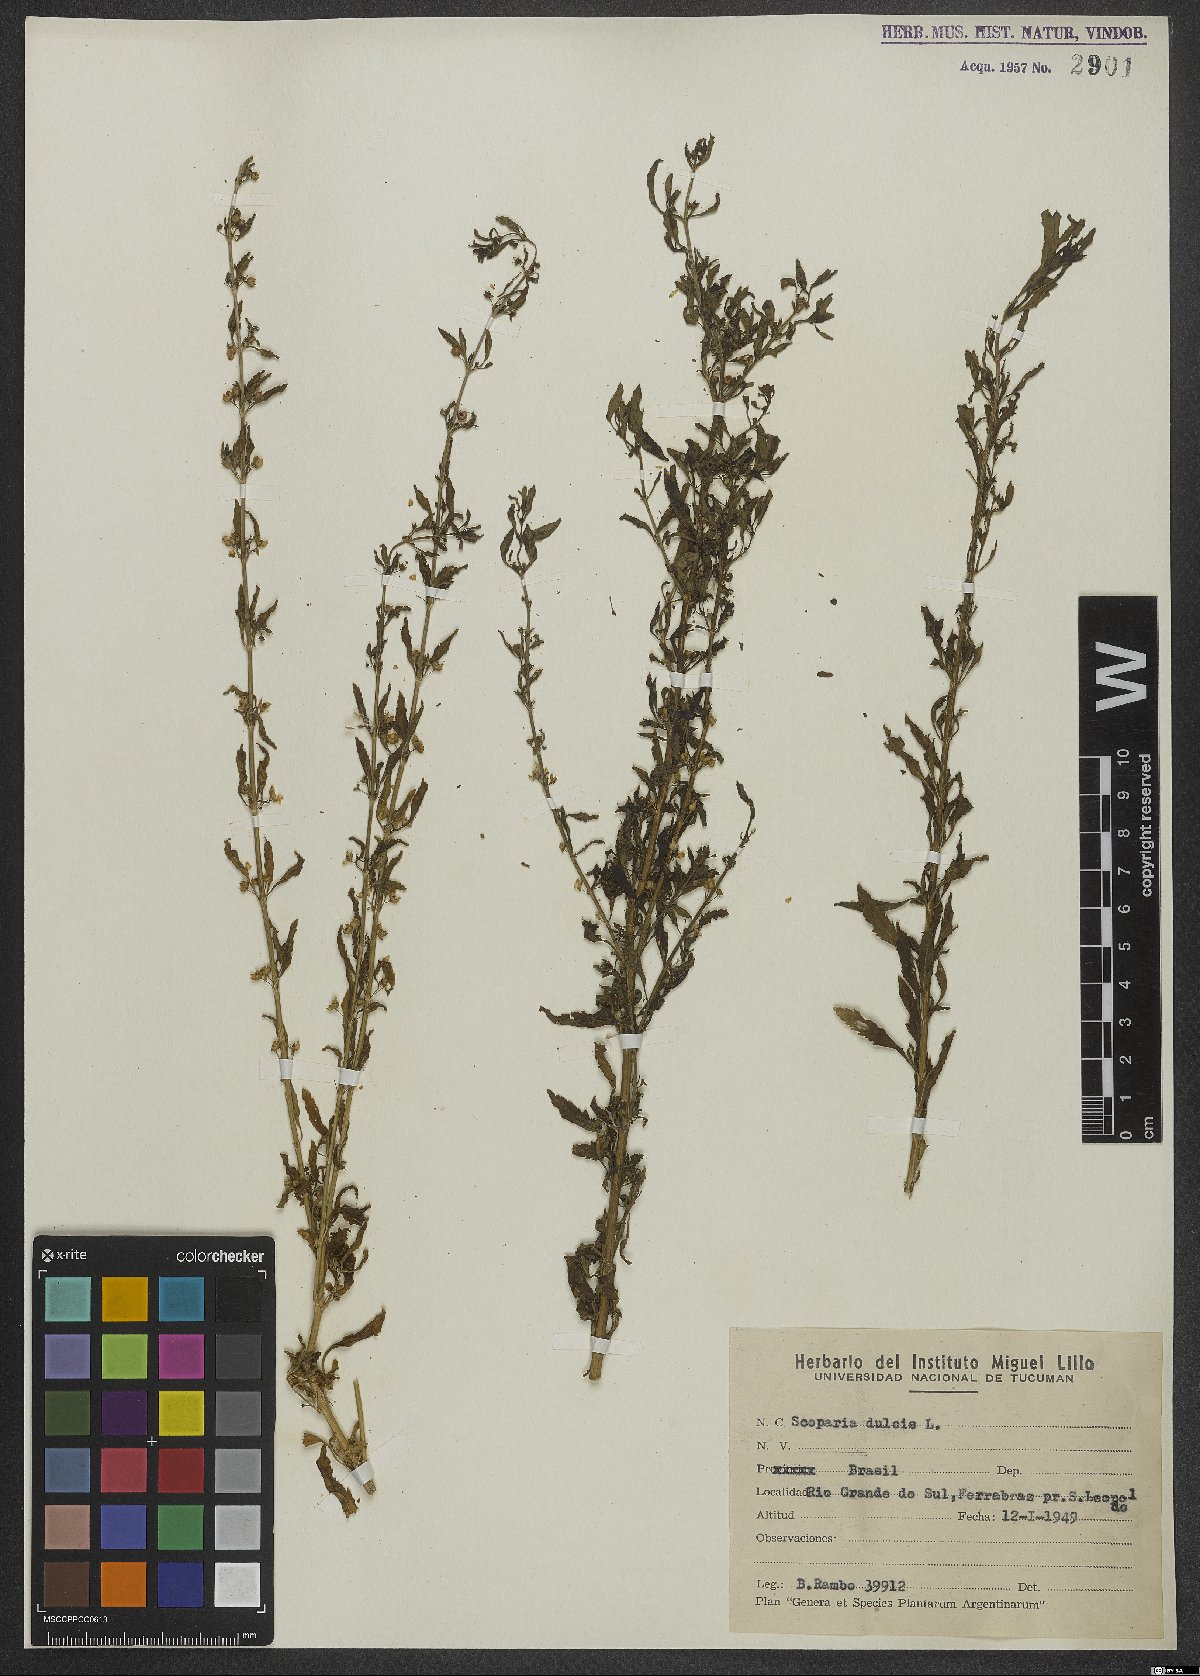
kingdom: Plantae
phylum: Tracheophyta
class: Magnoliopsida
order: Lamiales
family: Plantaginaceae
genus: Scoparia
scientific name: Scoparia dulcis
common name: Scoparia-weed
